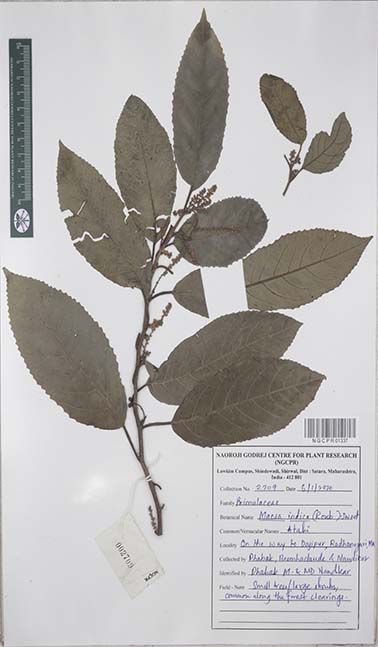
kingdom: Plantae
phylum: Tracheophyta
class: Magnoliopsida
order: Ericales
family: Primulaceae
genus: Maesa
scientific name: Maesa indica
